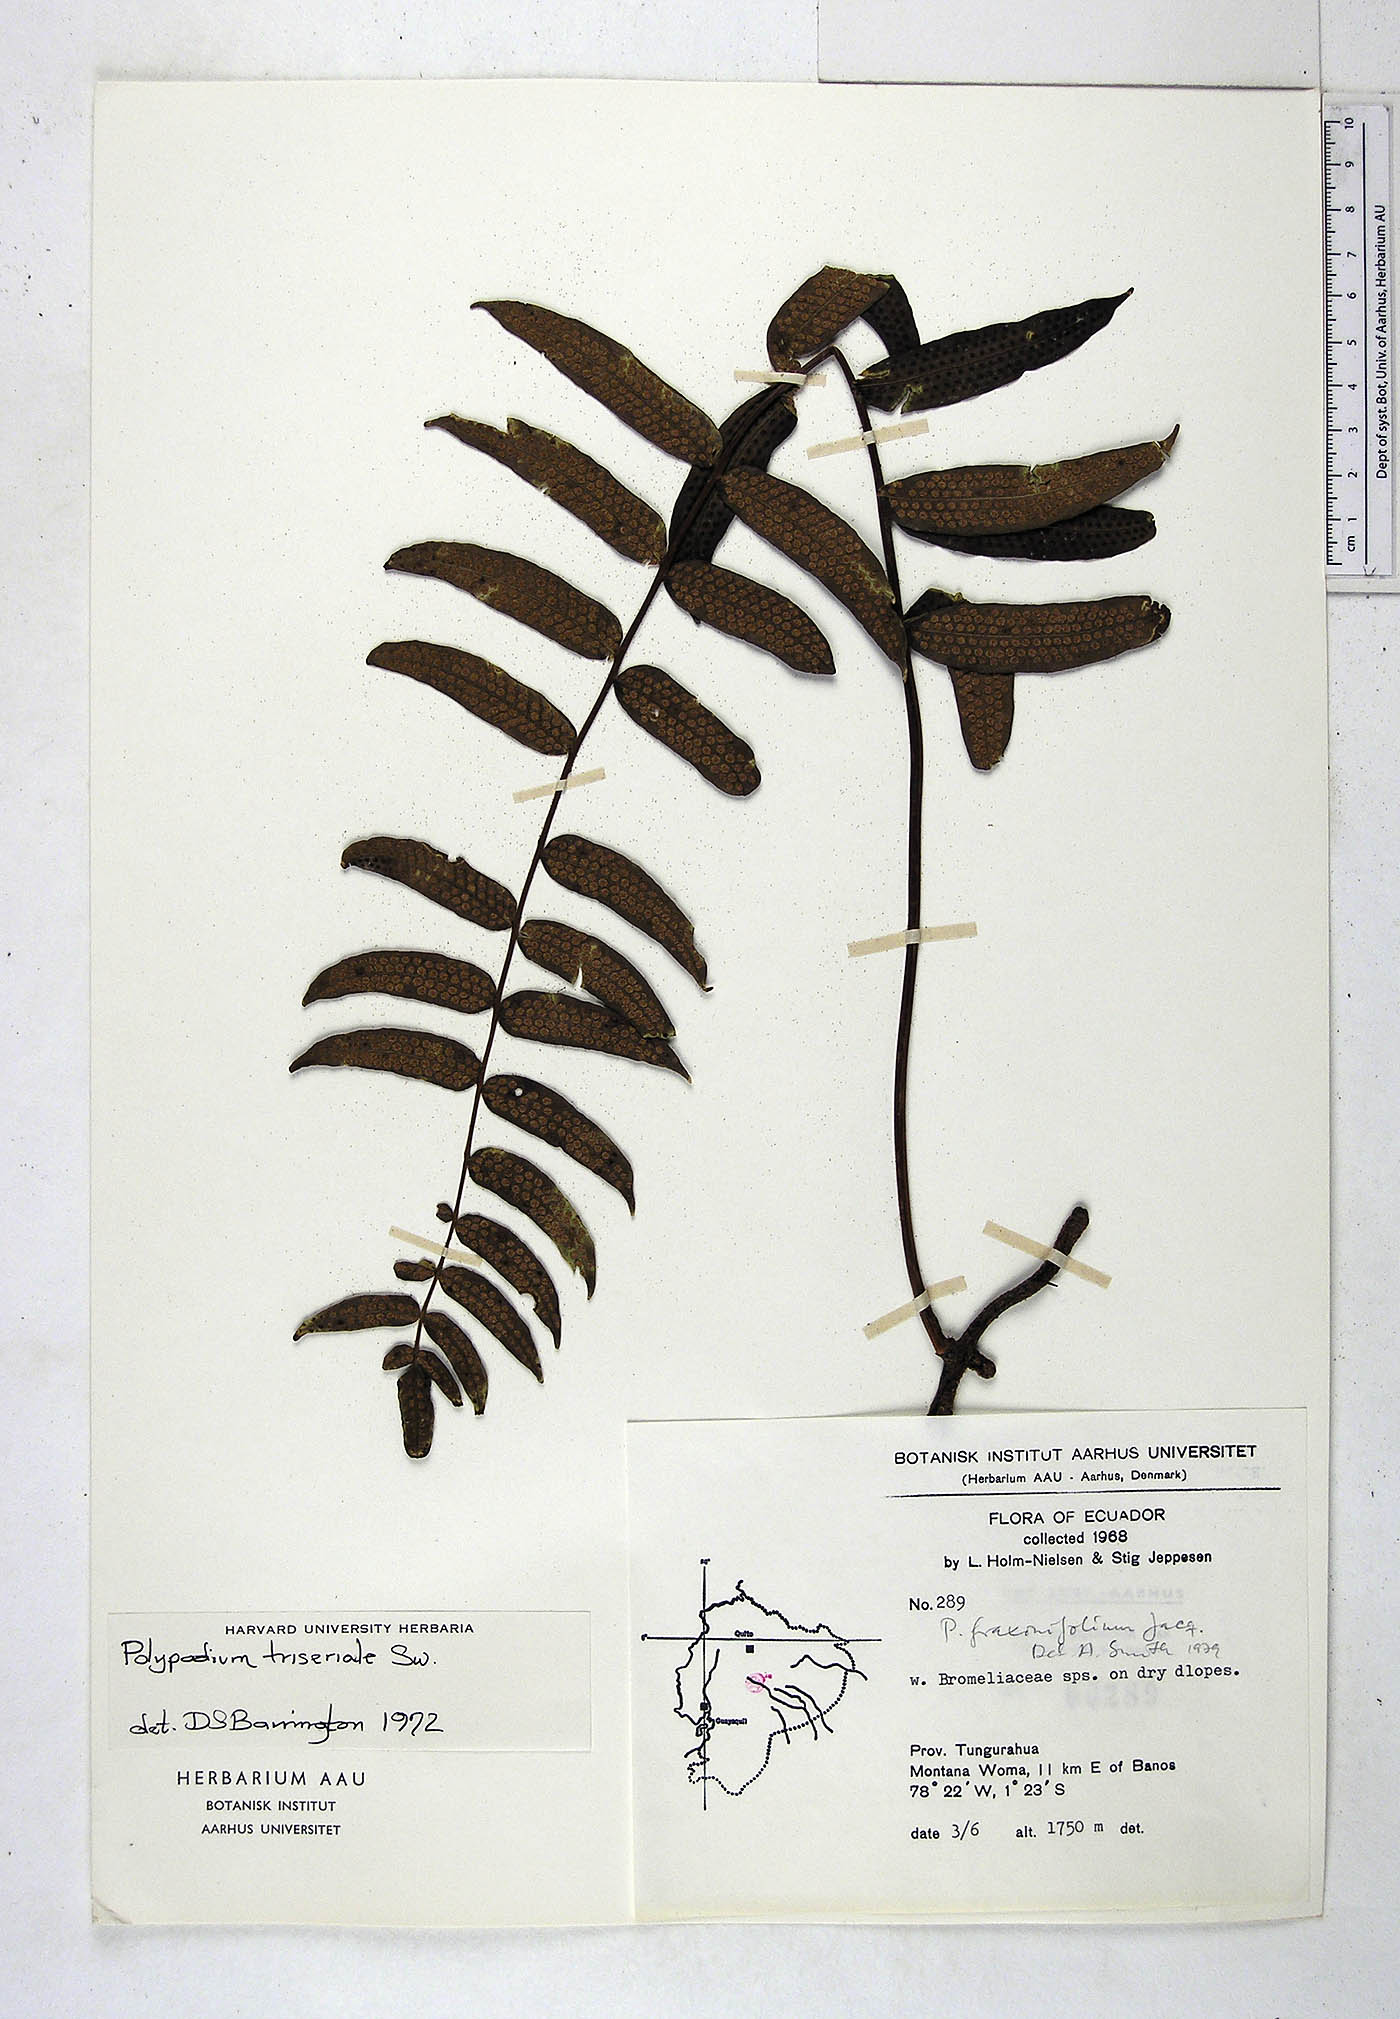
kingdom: Plantae
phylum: Tracheophyta
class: Polypodiopsida
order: Polypodiales
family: Polypodiaceae
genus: Serpocaulon
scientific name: Serpocaulon fraxinifolium
